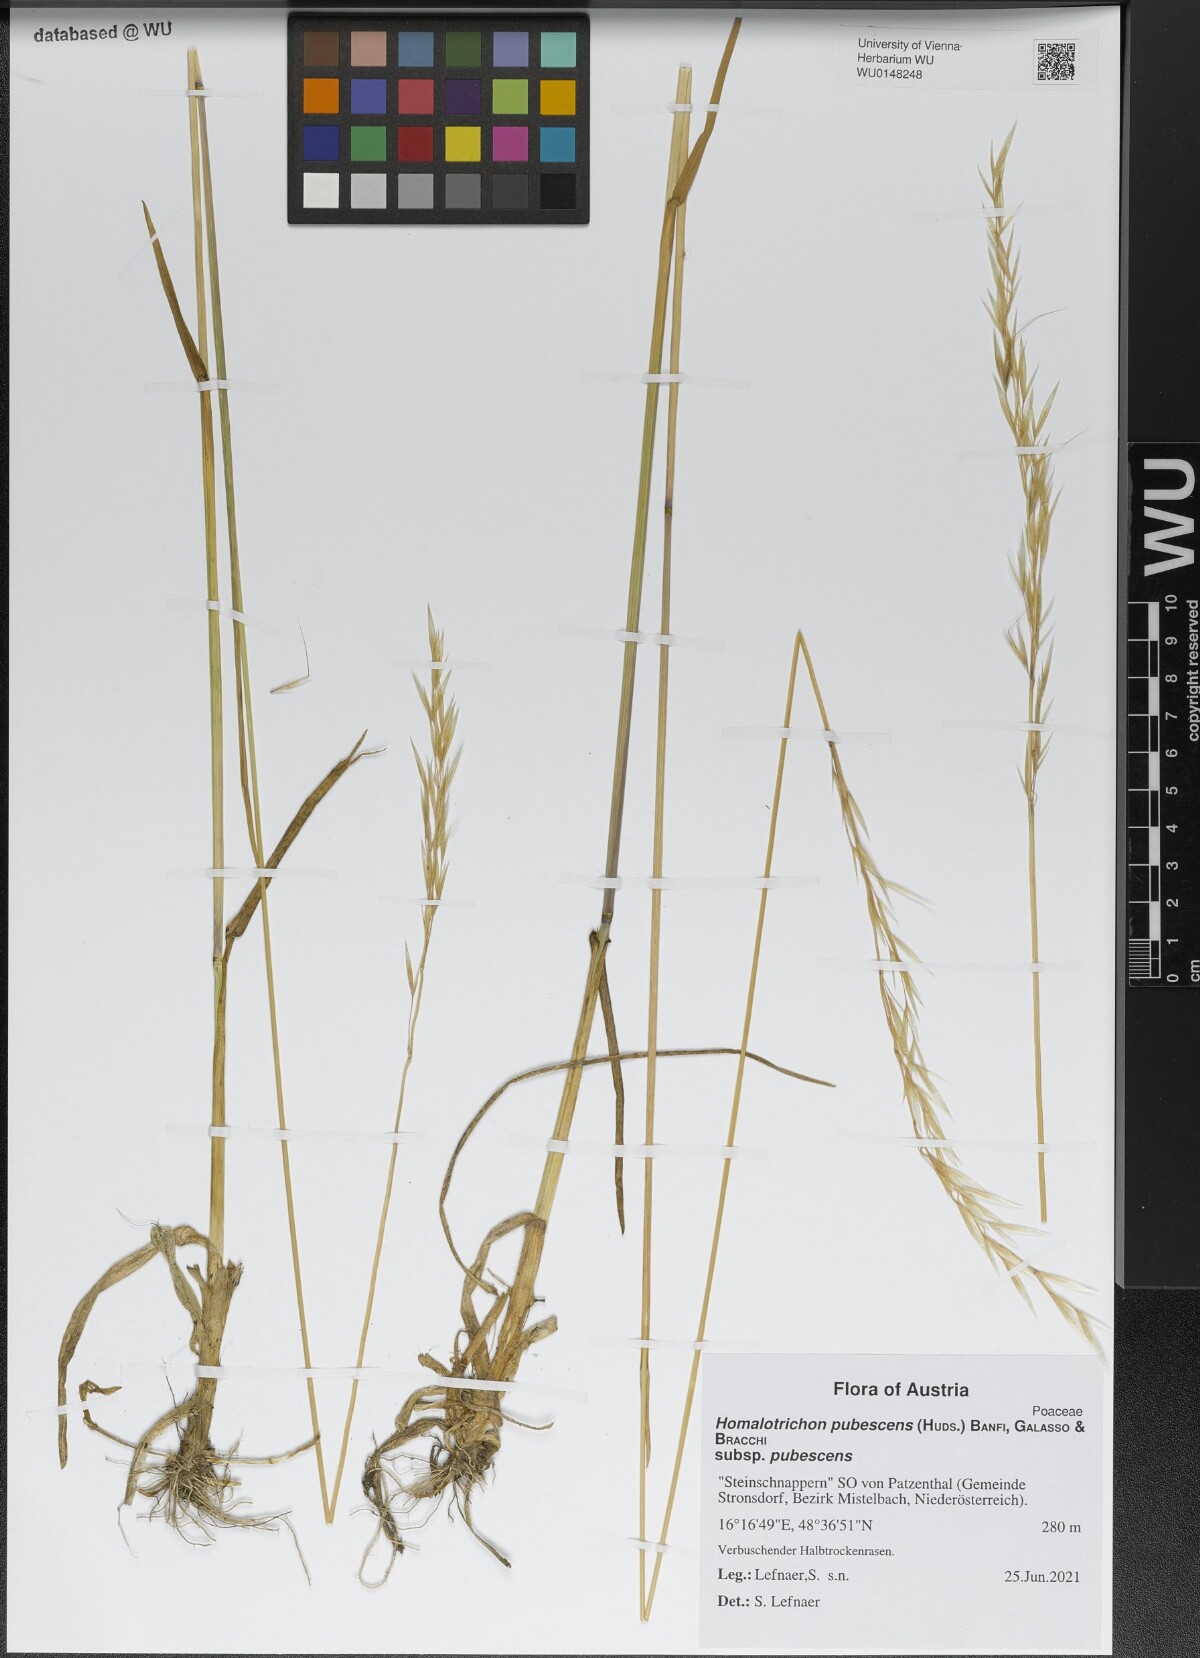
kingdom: Plantae
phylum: Tracheophyta
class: Liliopsida
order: Poales
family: Poaceae
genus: Avenula
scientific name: Avenula pubescens
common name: Downy alpine oatgrass
